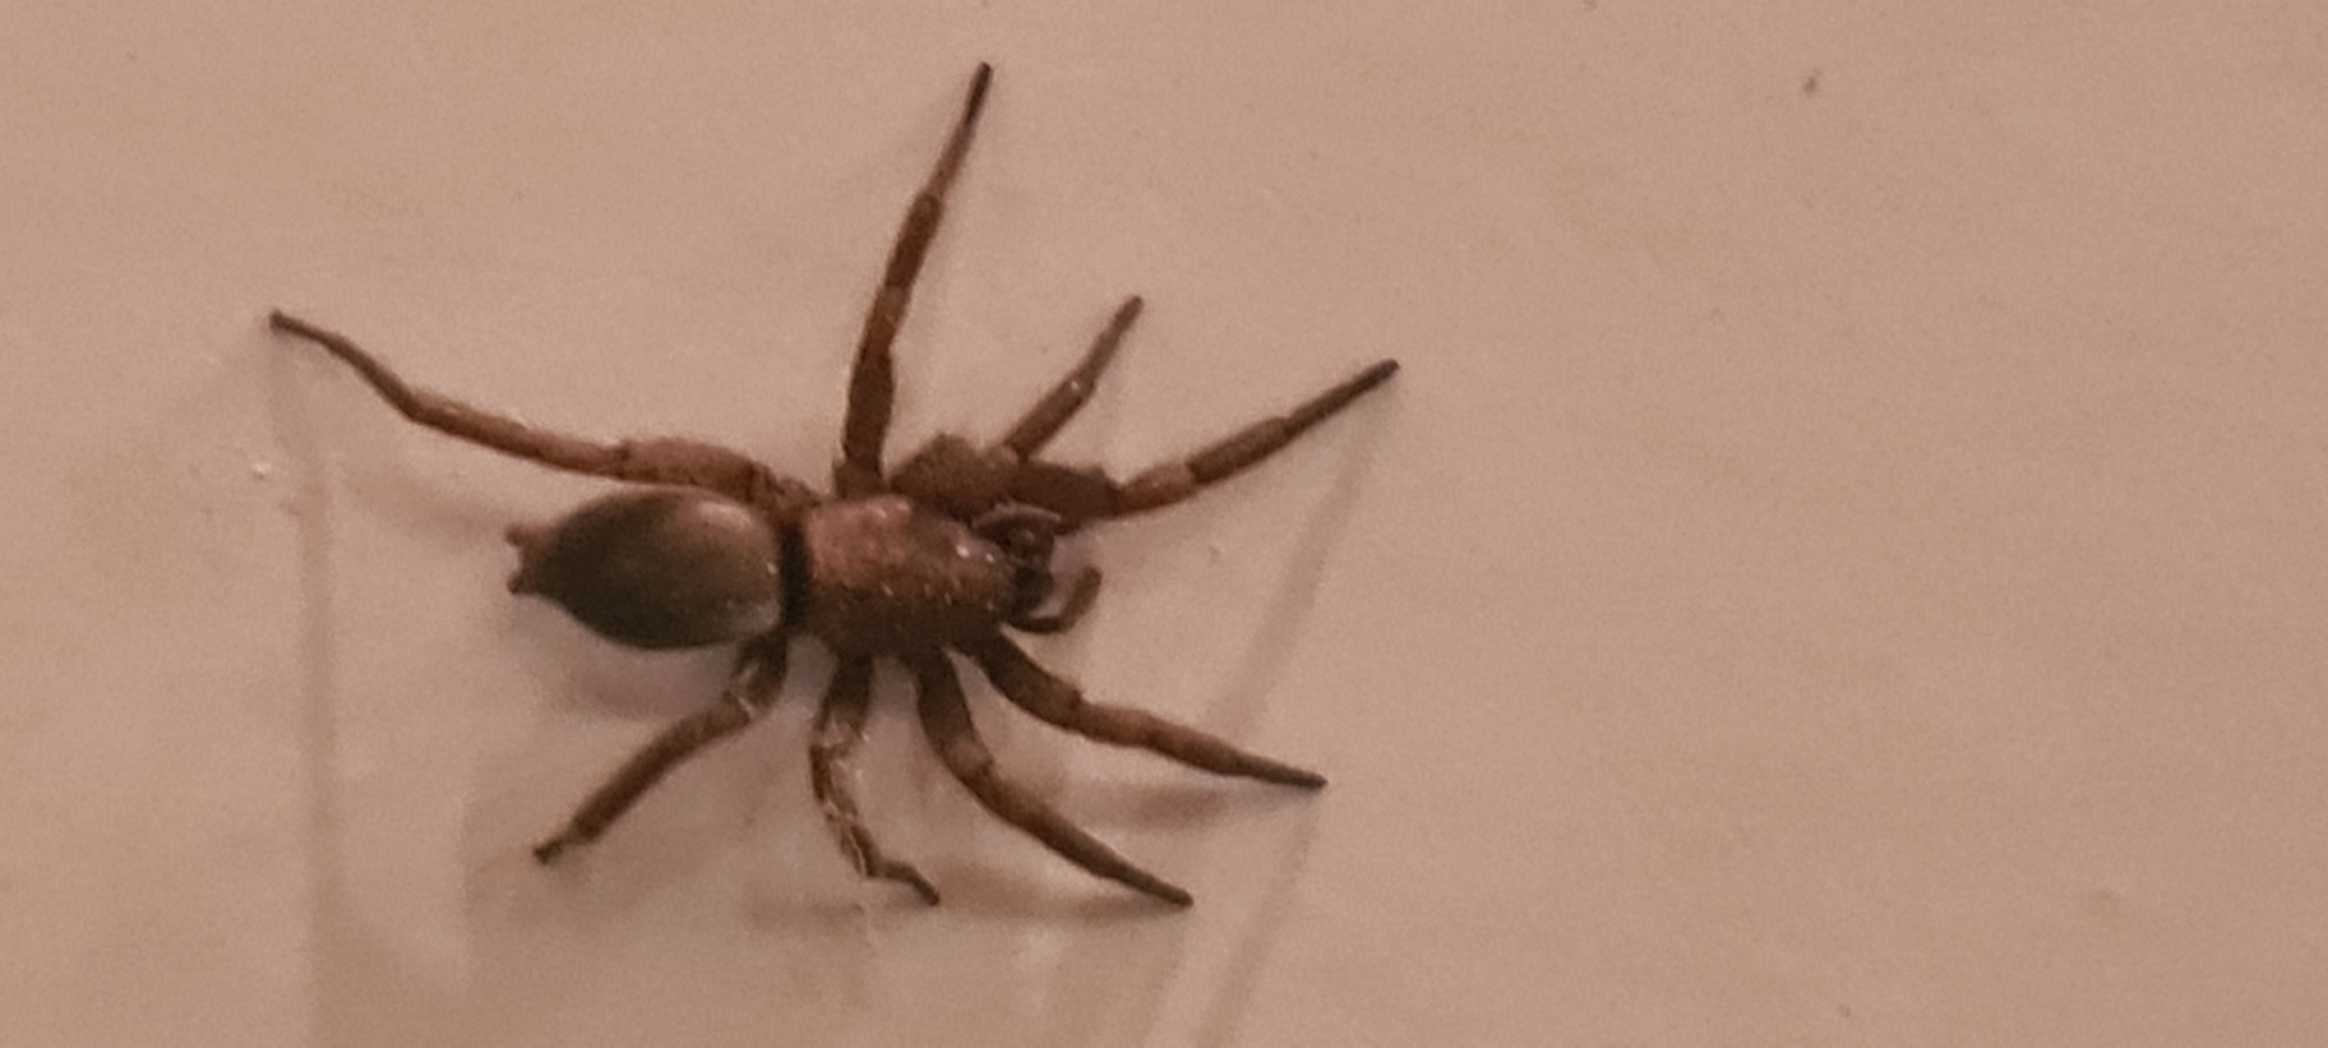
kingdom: Animalia
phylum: Arthropoda
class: Arachnida
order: Araneae
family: Gnaphosidae
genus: Scotophaeus
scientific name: Scotophaeus
